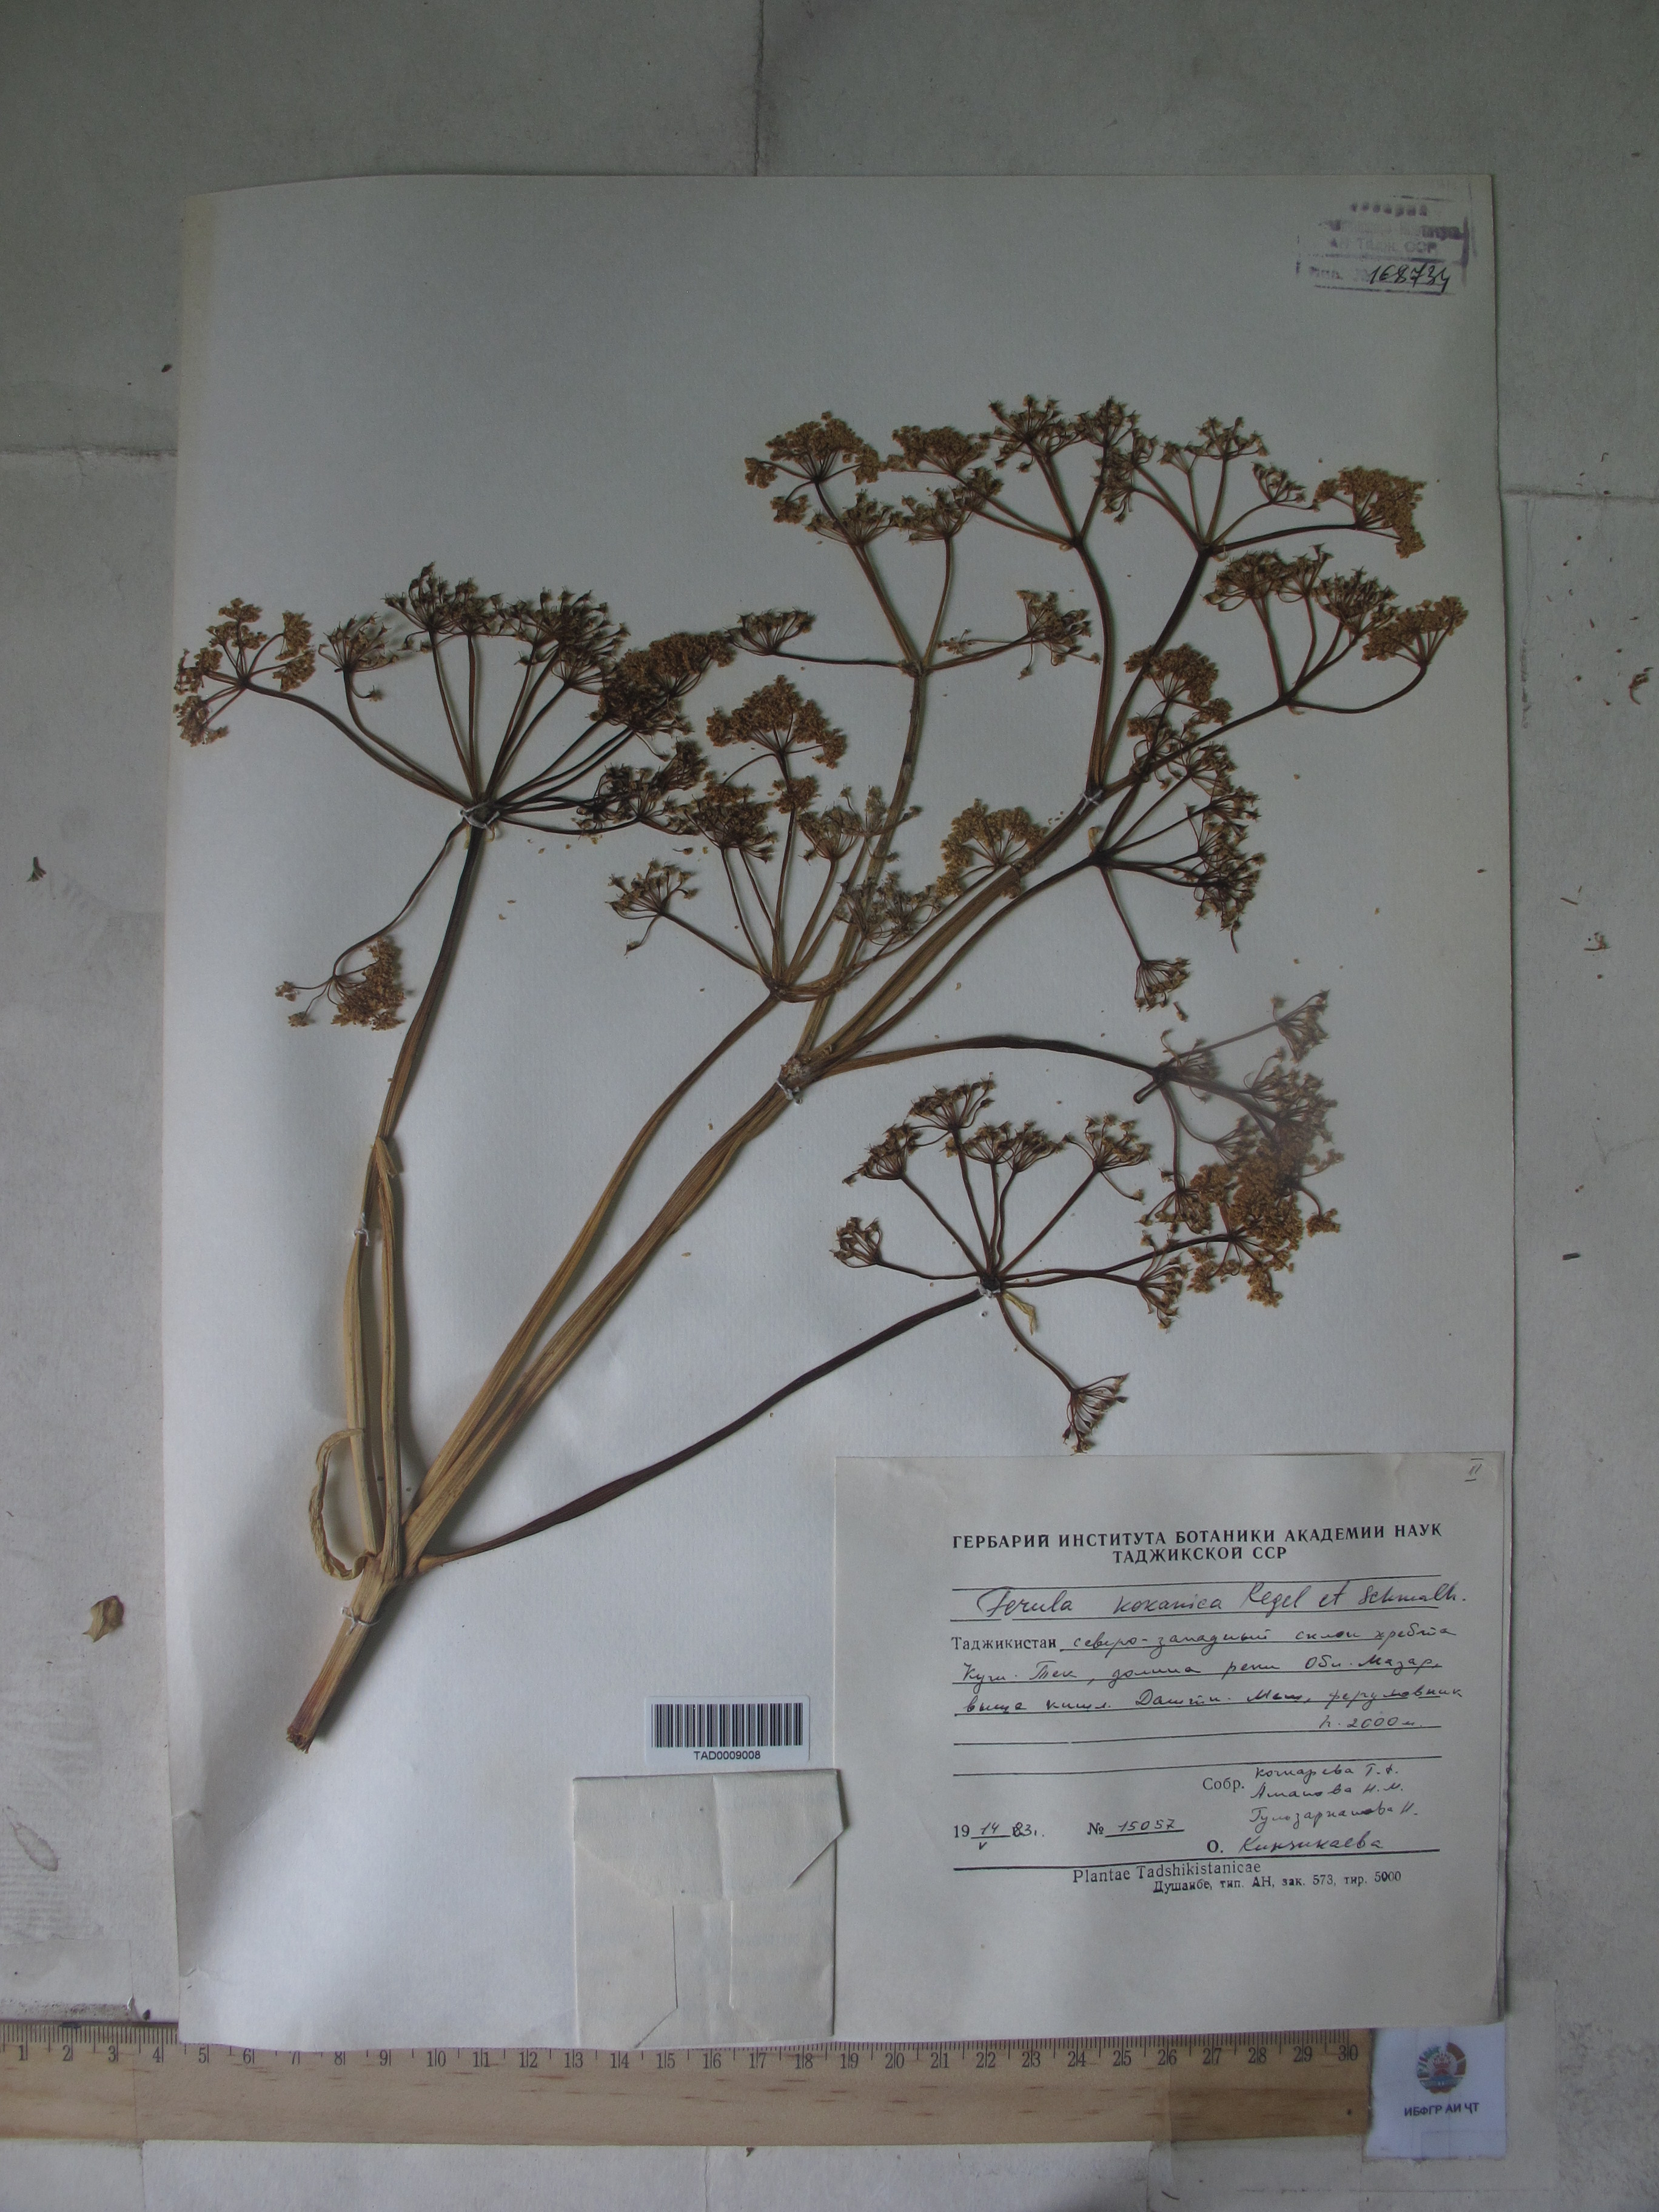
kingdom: Plantae
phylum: Tracheophyta
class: Magnoliopsida
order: Apiales
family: Apiaceae
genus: Ferula
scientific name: Ferula kokanica
